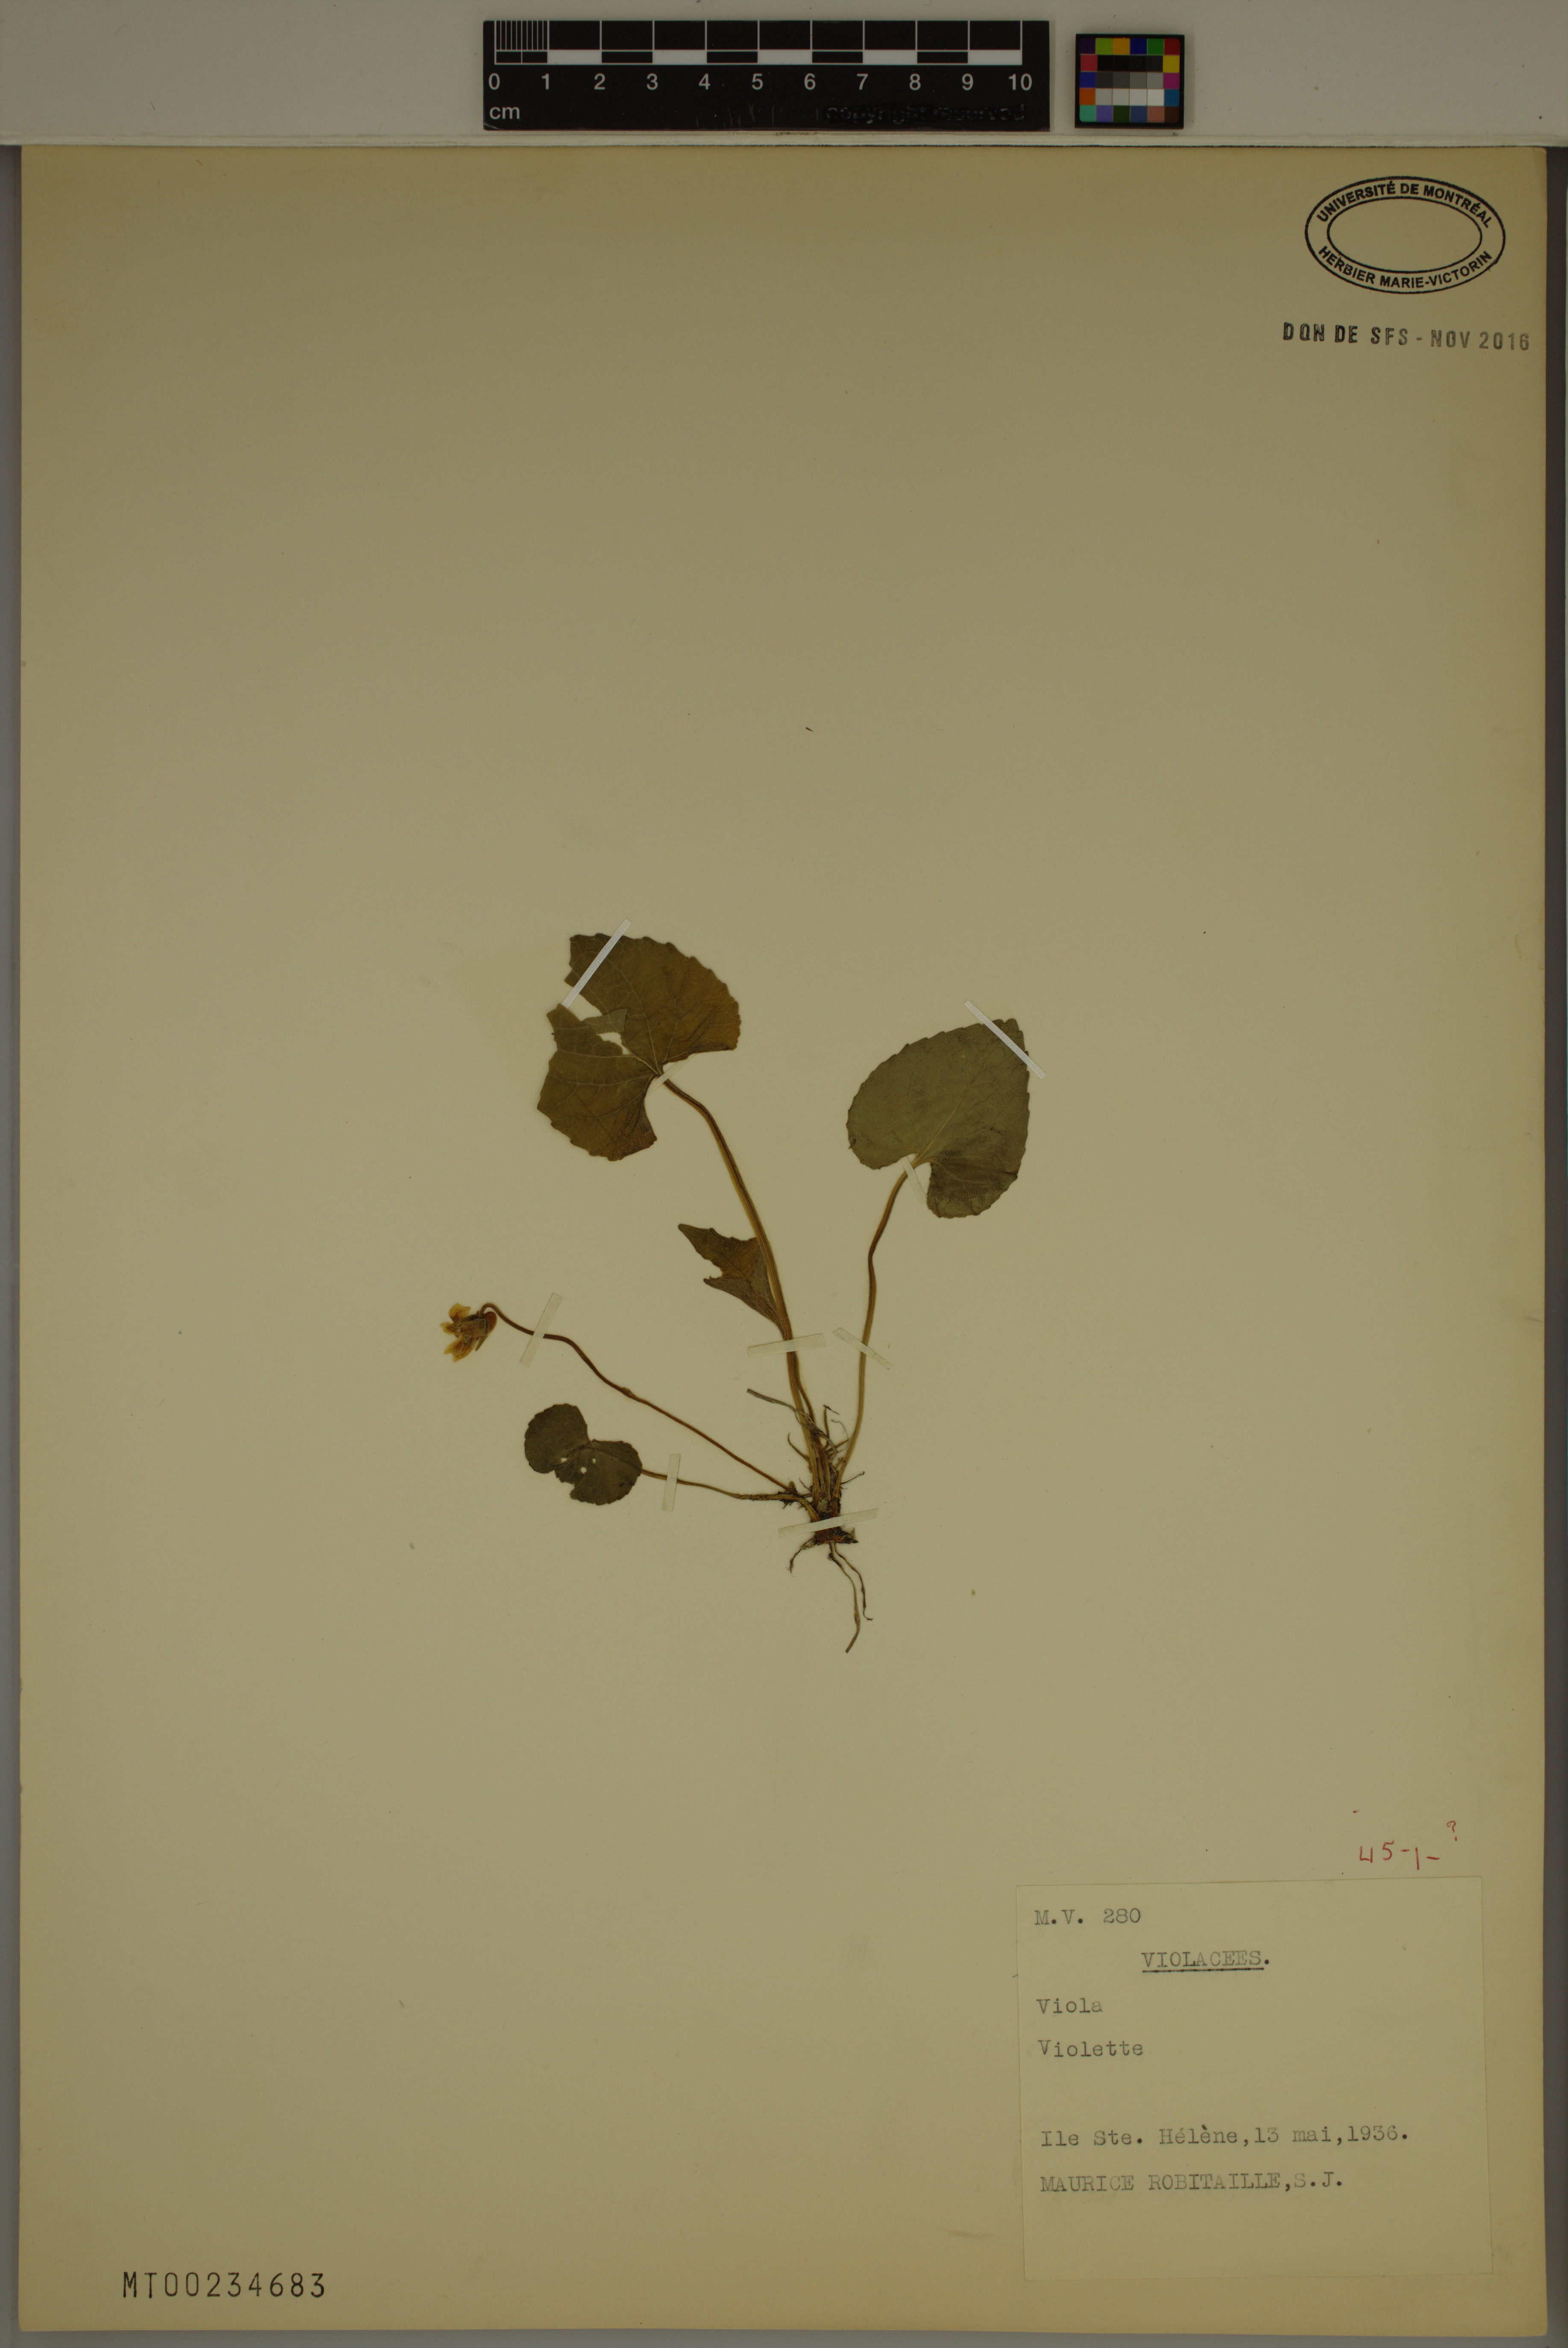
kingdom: Plantae
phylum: Tracheophyta
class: Magnoliopsida
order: Malpighiales
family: Violaceae
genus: Viola
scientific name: Viola
